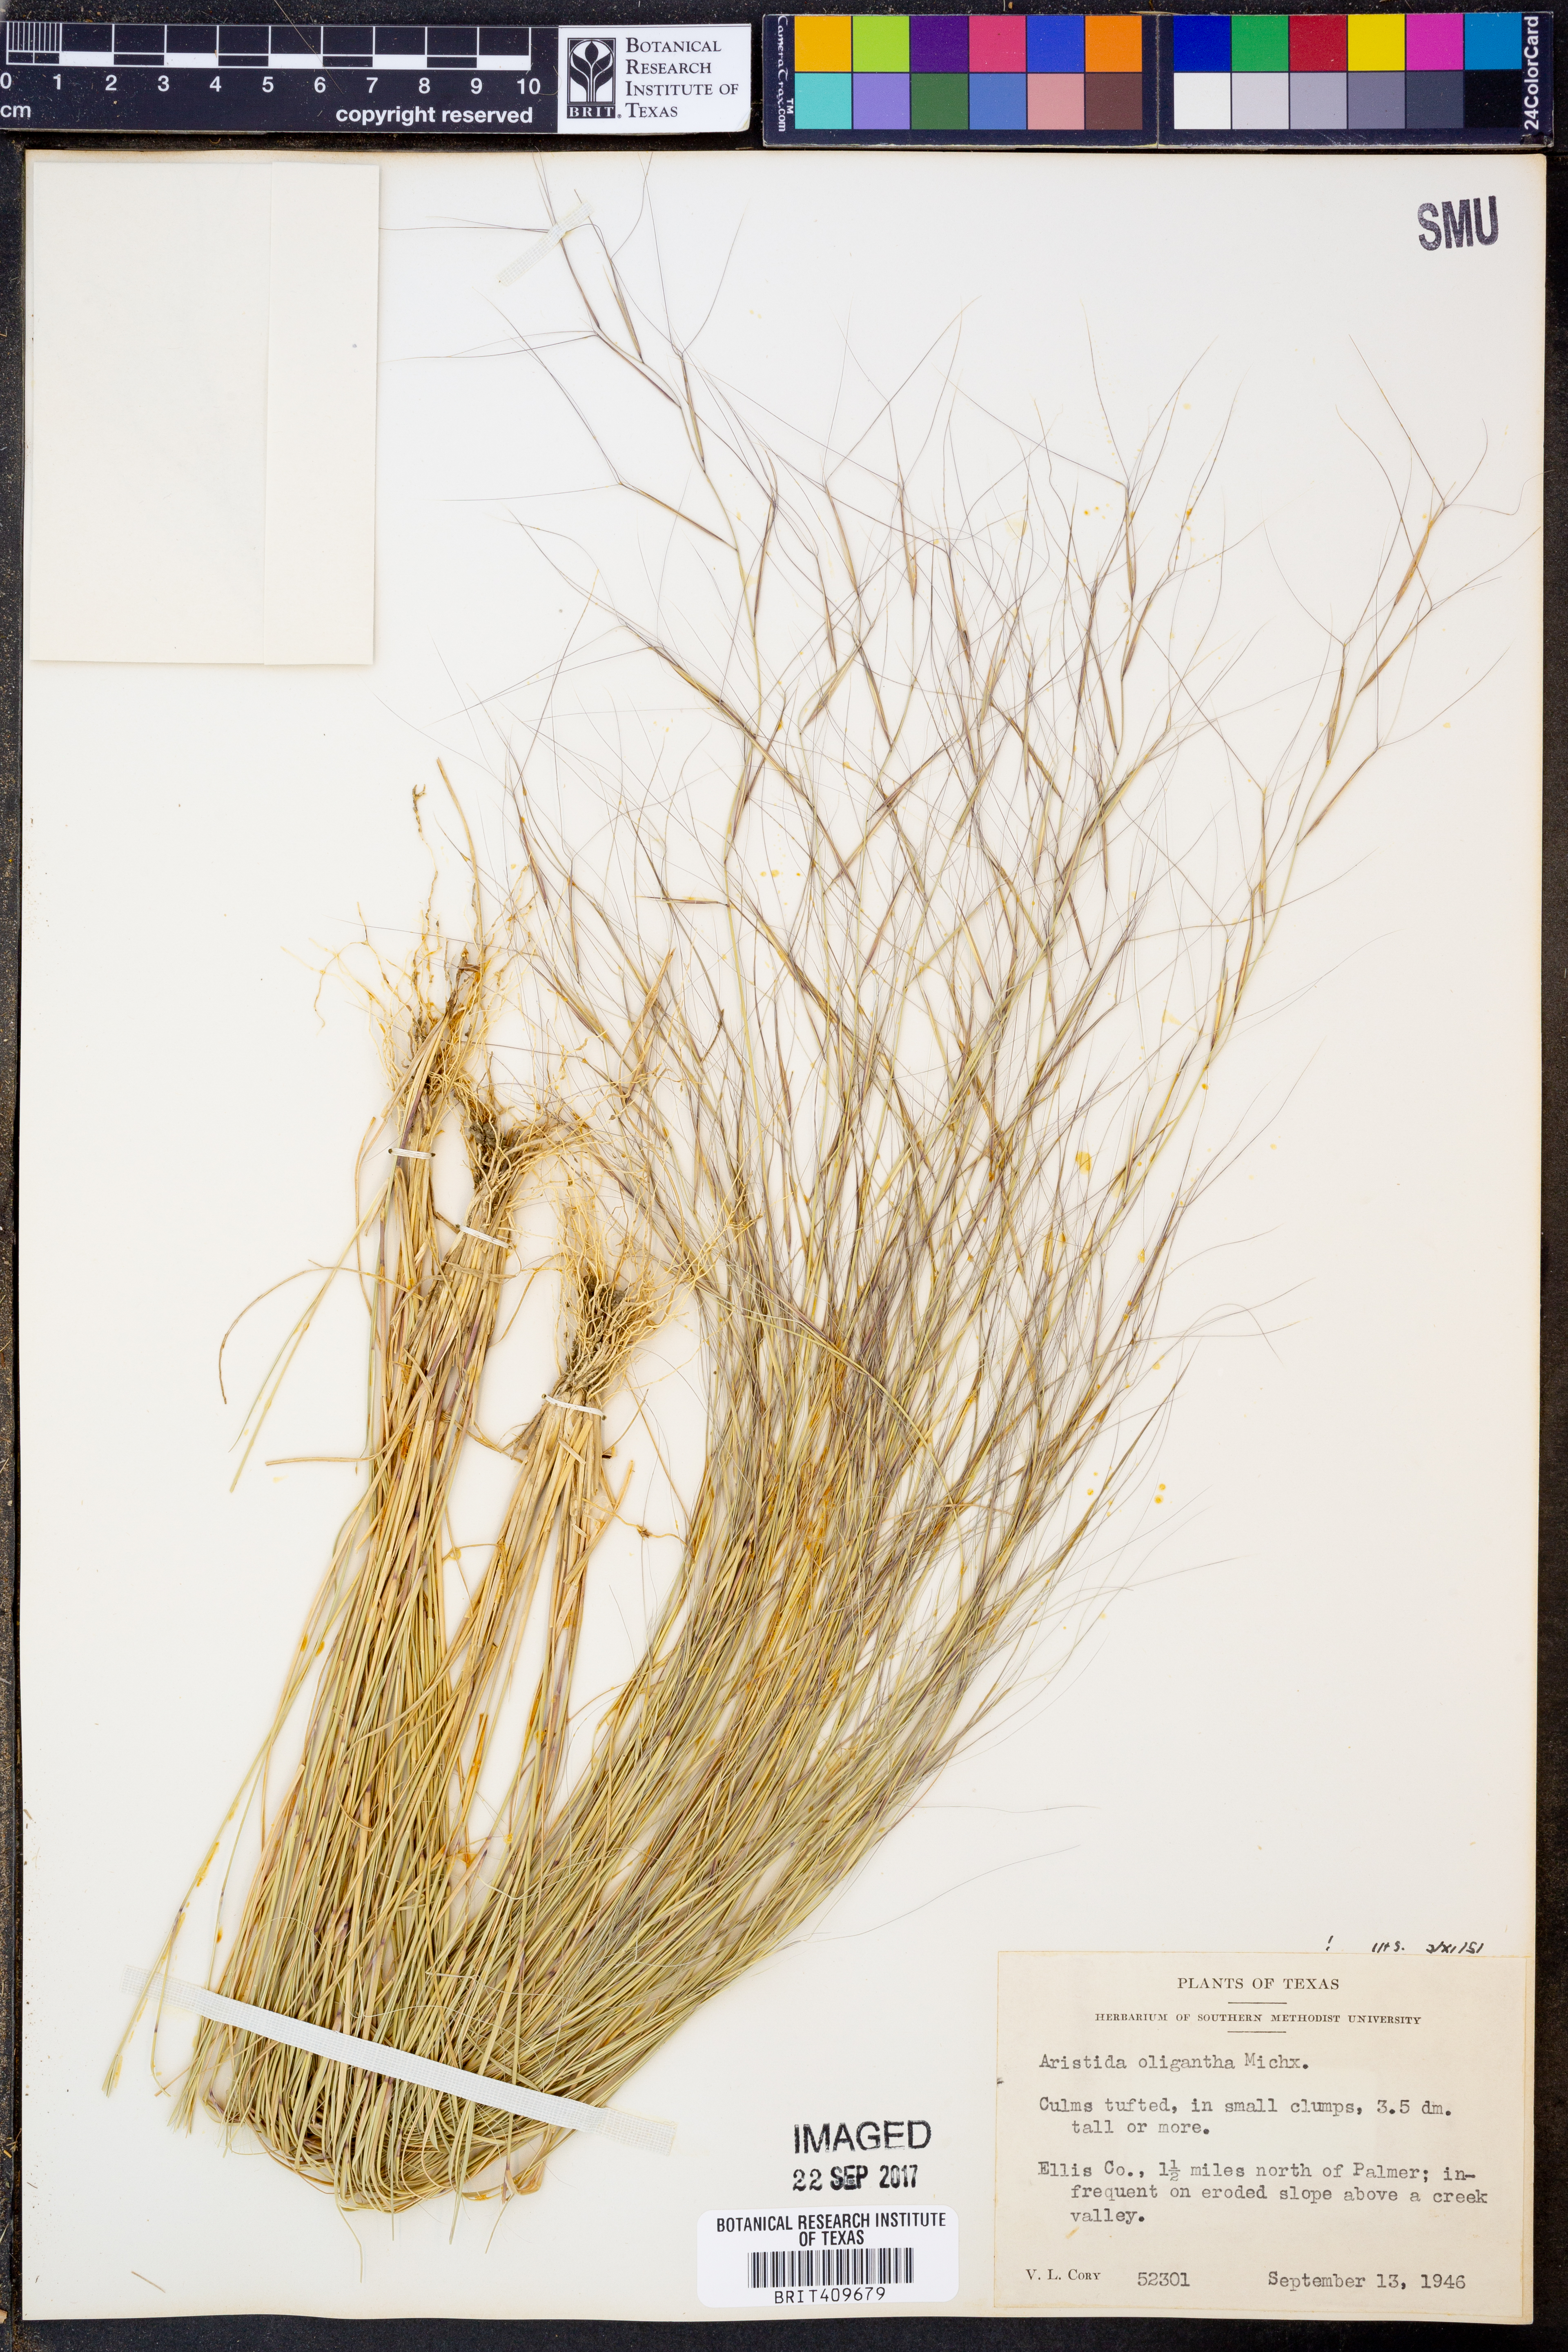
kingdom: Plantae
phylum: Tracheophyta
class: Liliopsida
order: Poales
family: Poaceae
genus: Aristida
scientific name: Aristida oligantha
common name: Few-flowered aristida
